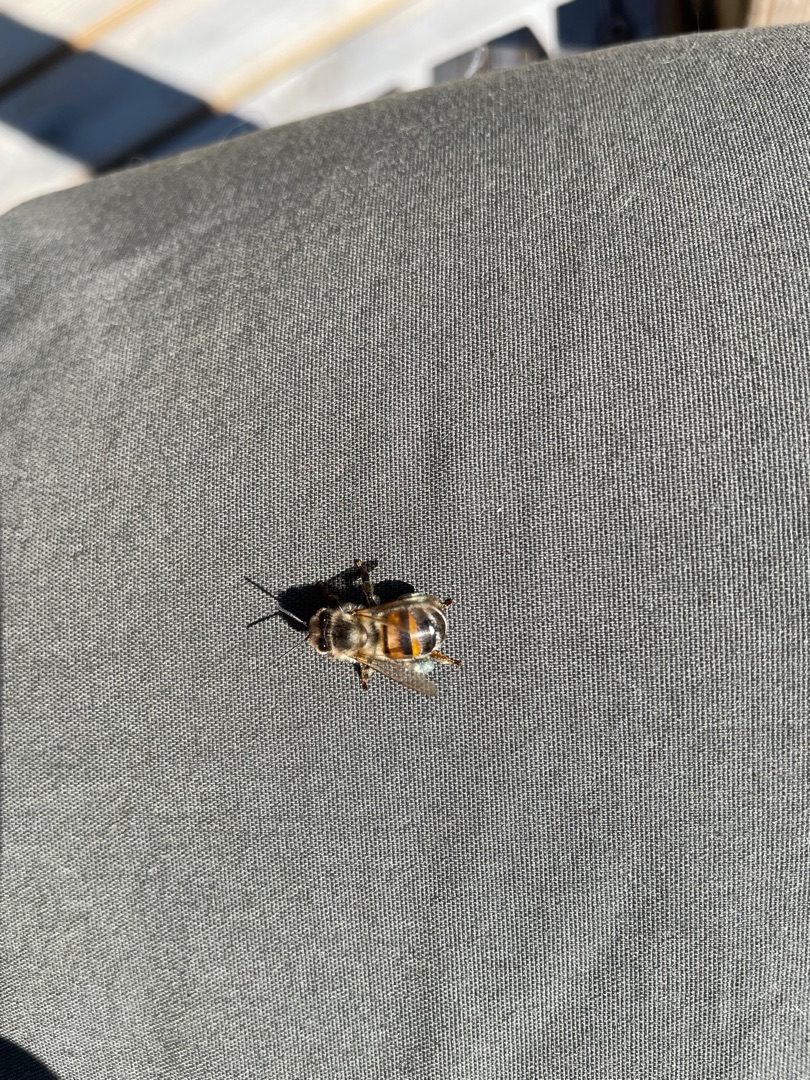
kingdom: Animalia
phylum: Arthropoda
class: Insecta
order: Hymenoptera
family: Apidae
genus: Apis
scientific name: Apis mellifera
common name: Honningbi
